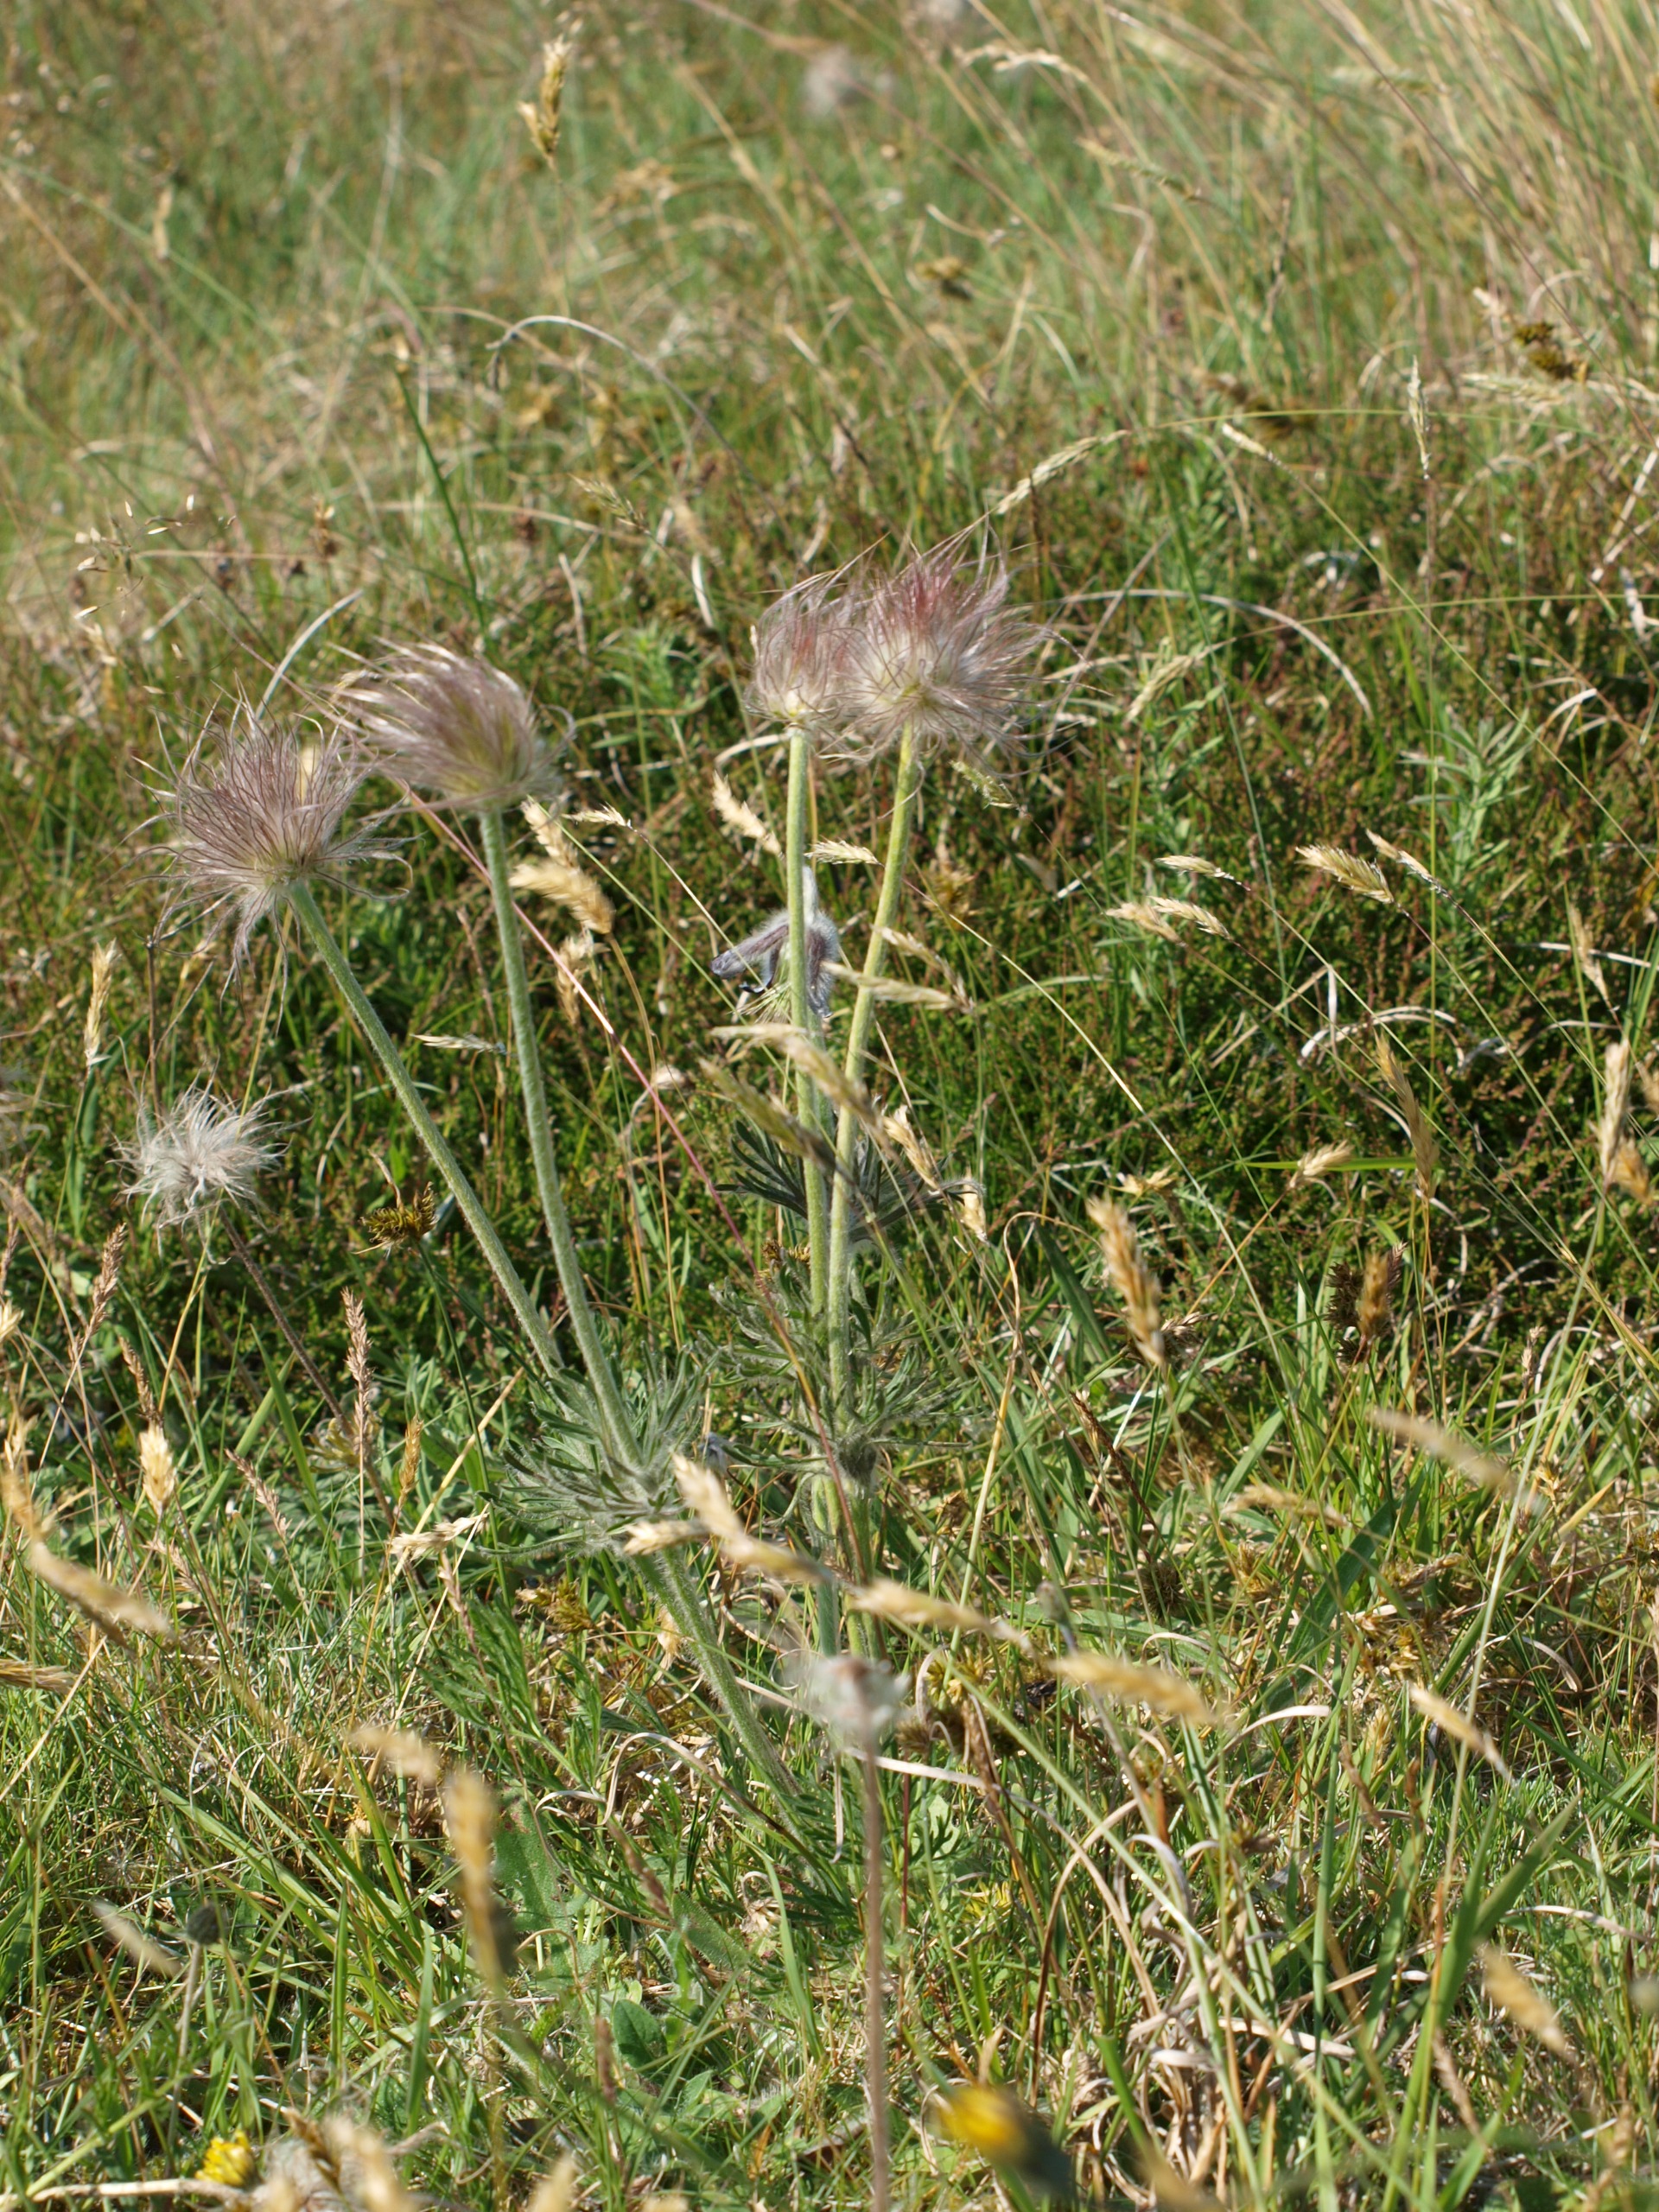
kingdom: Plantae
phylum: Tracheophyta
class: Magnoliopsida
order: Ranunculales
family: Ranunculaceae
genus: Pulsatilla
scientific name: Pulsatilla pratensis
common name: Nikkende kobjælde
